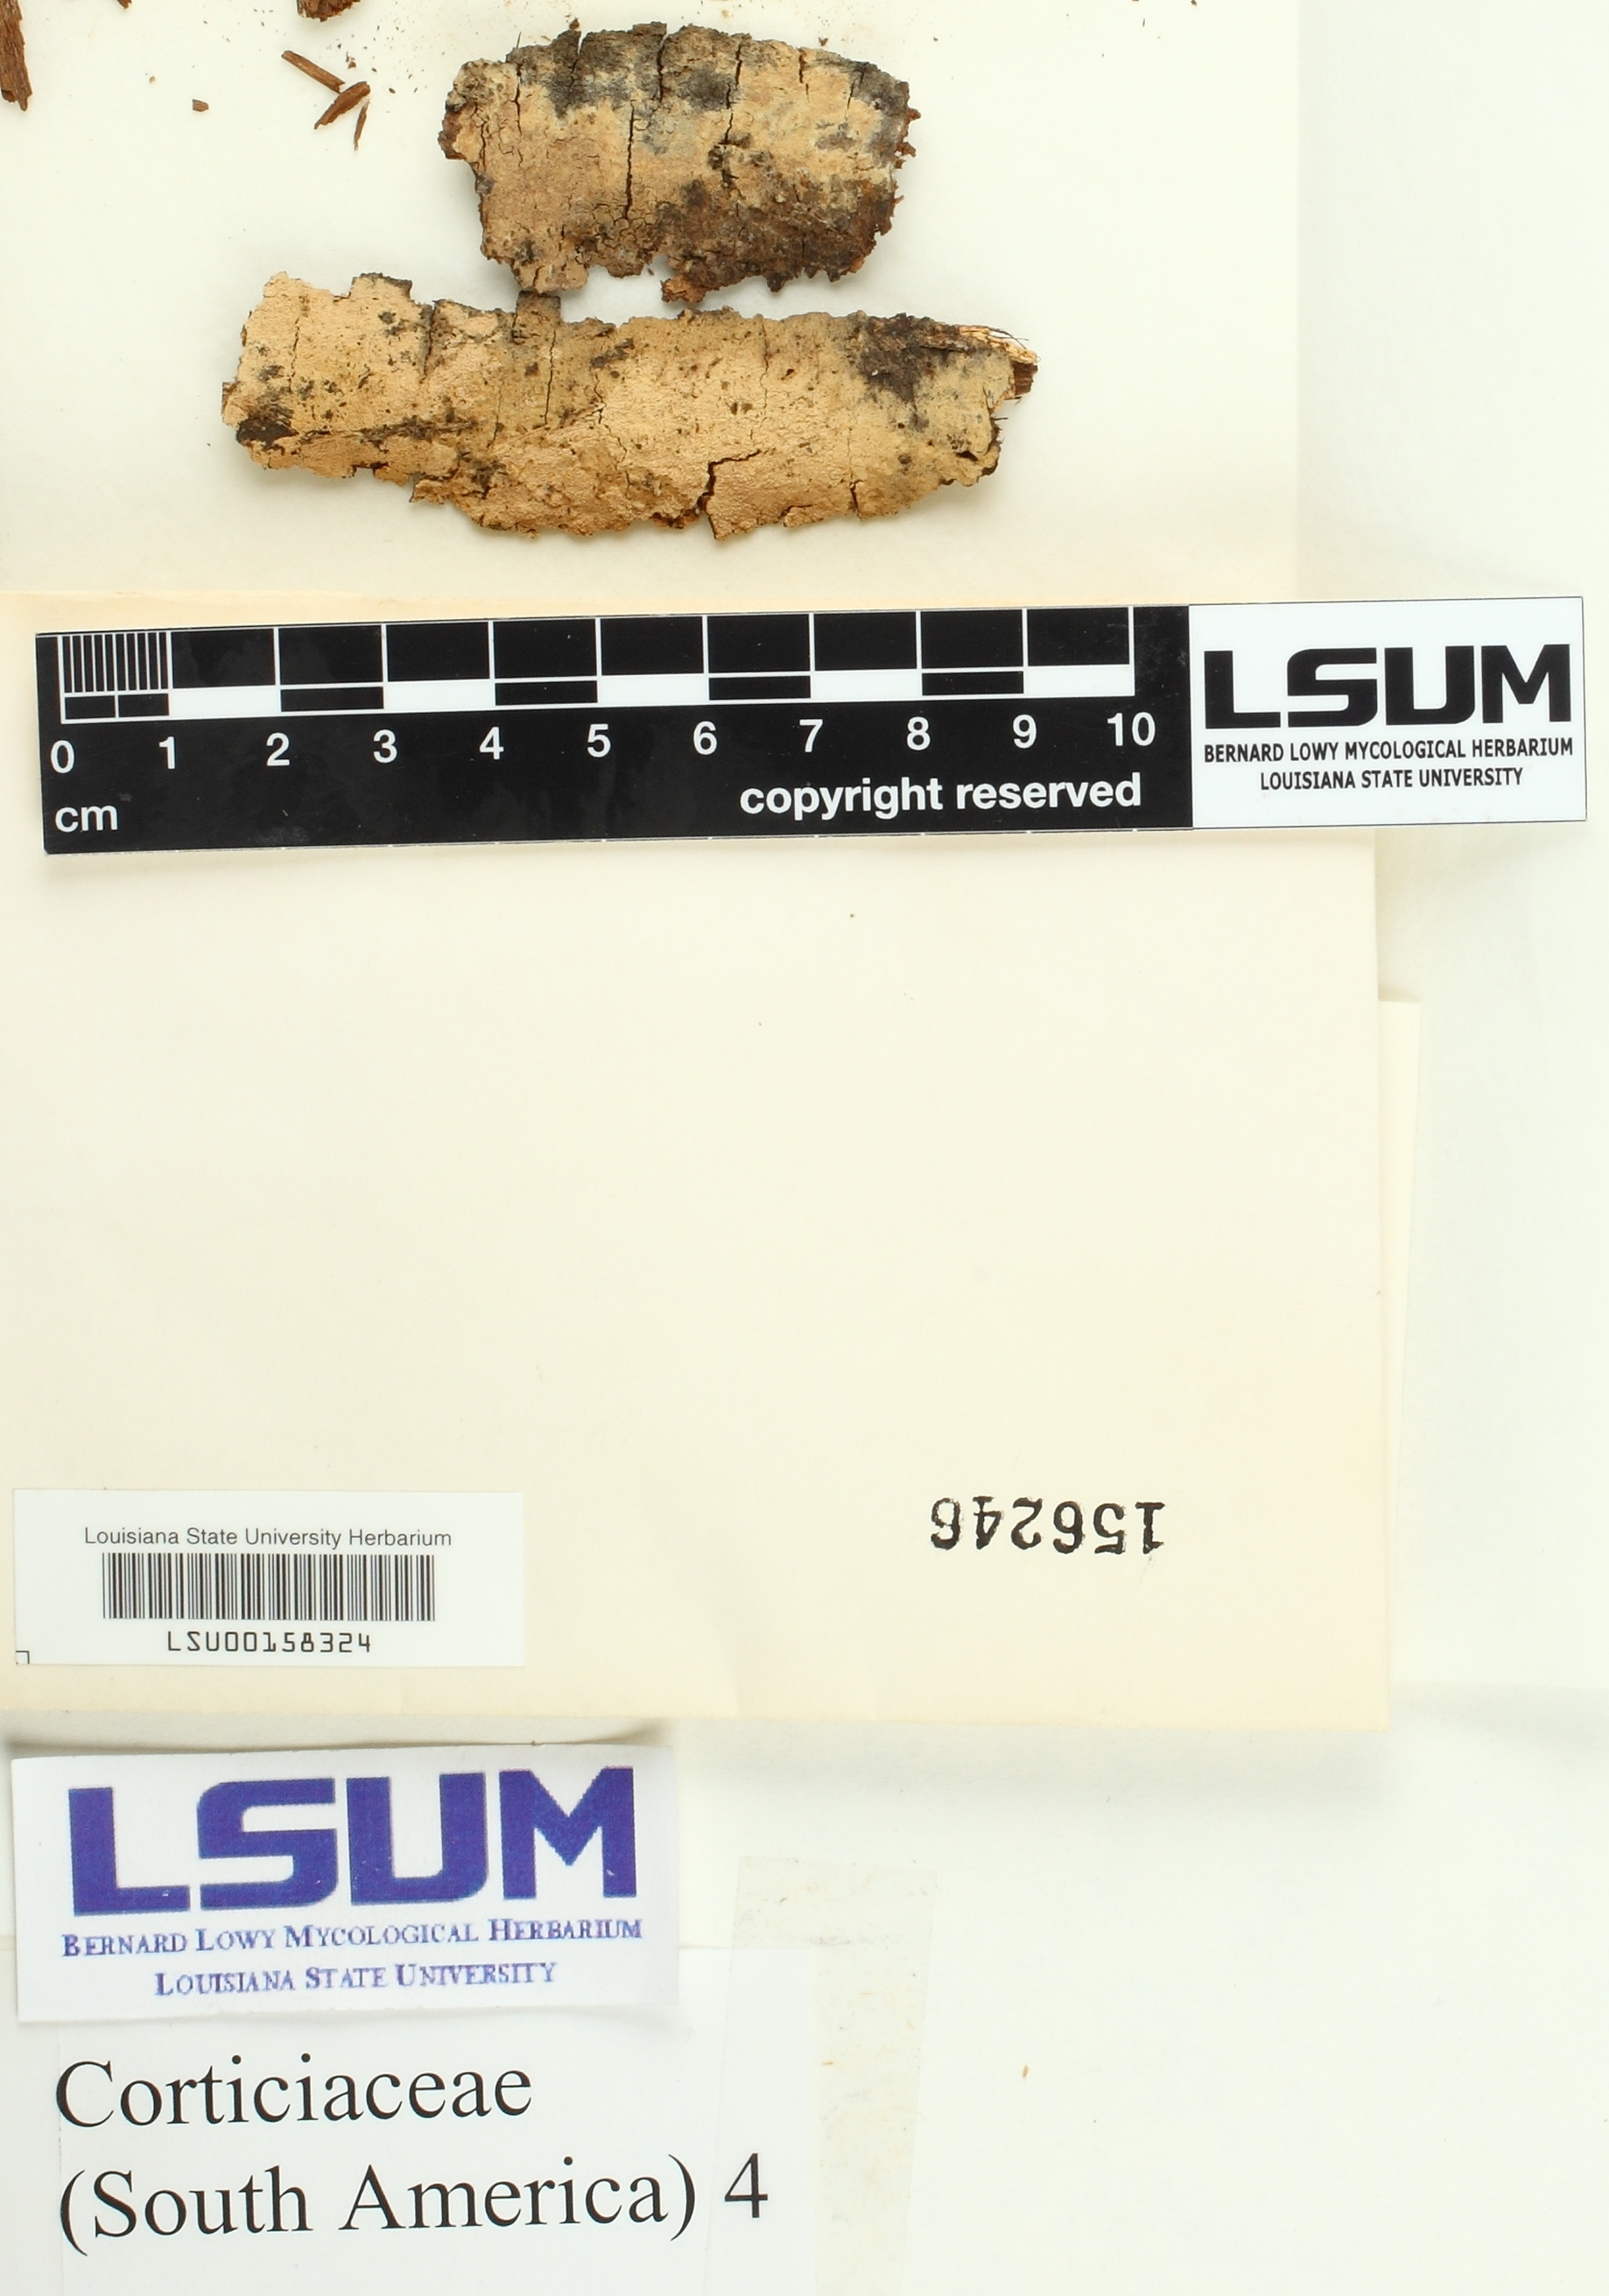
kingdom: Fungi
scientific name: Fungi
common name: Fungi
